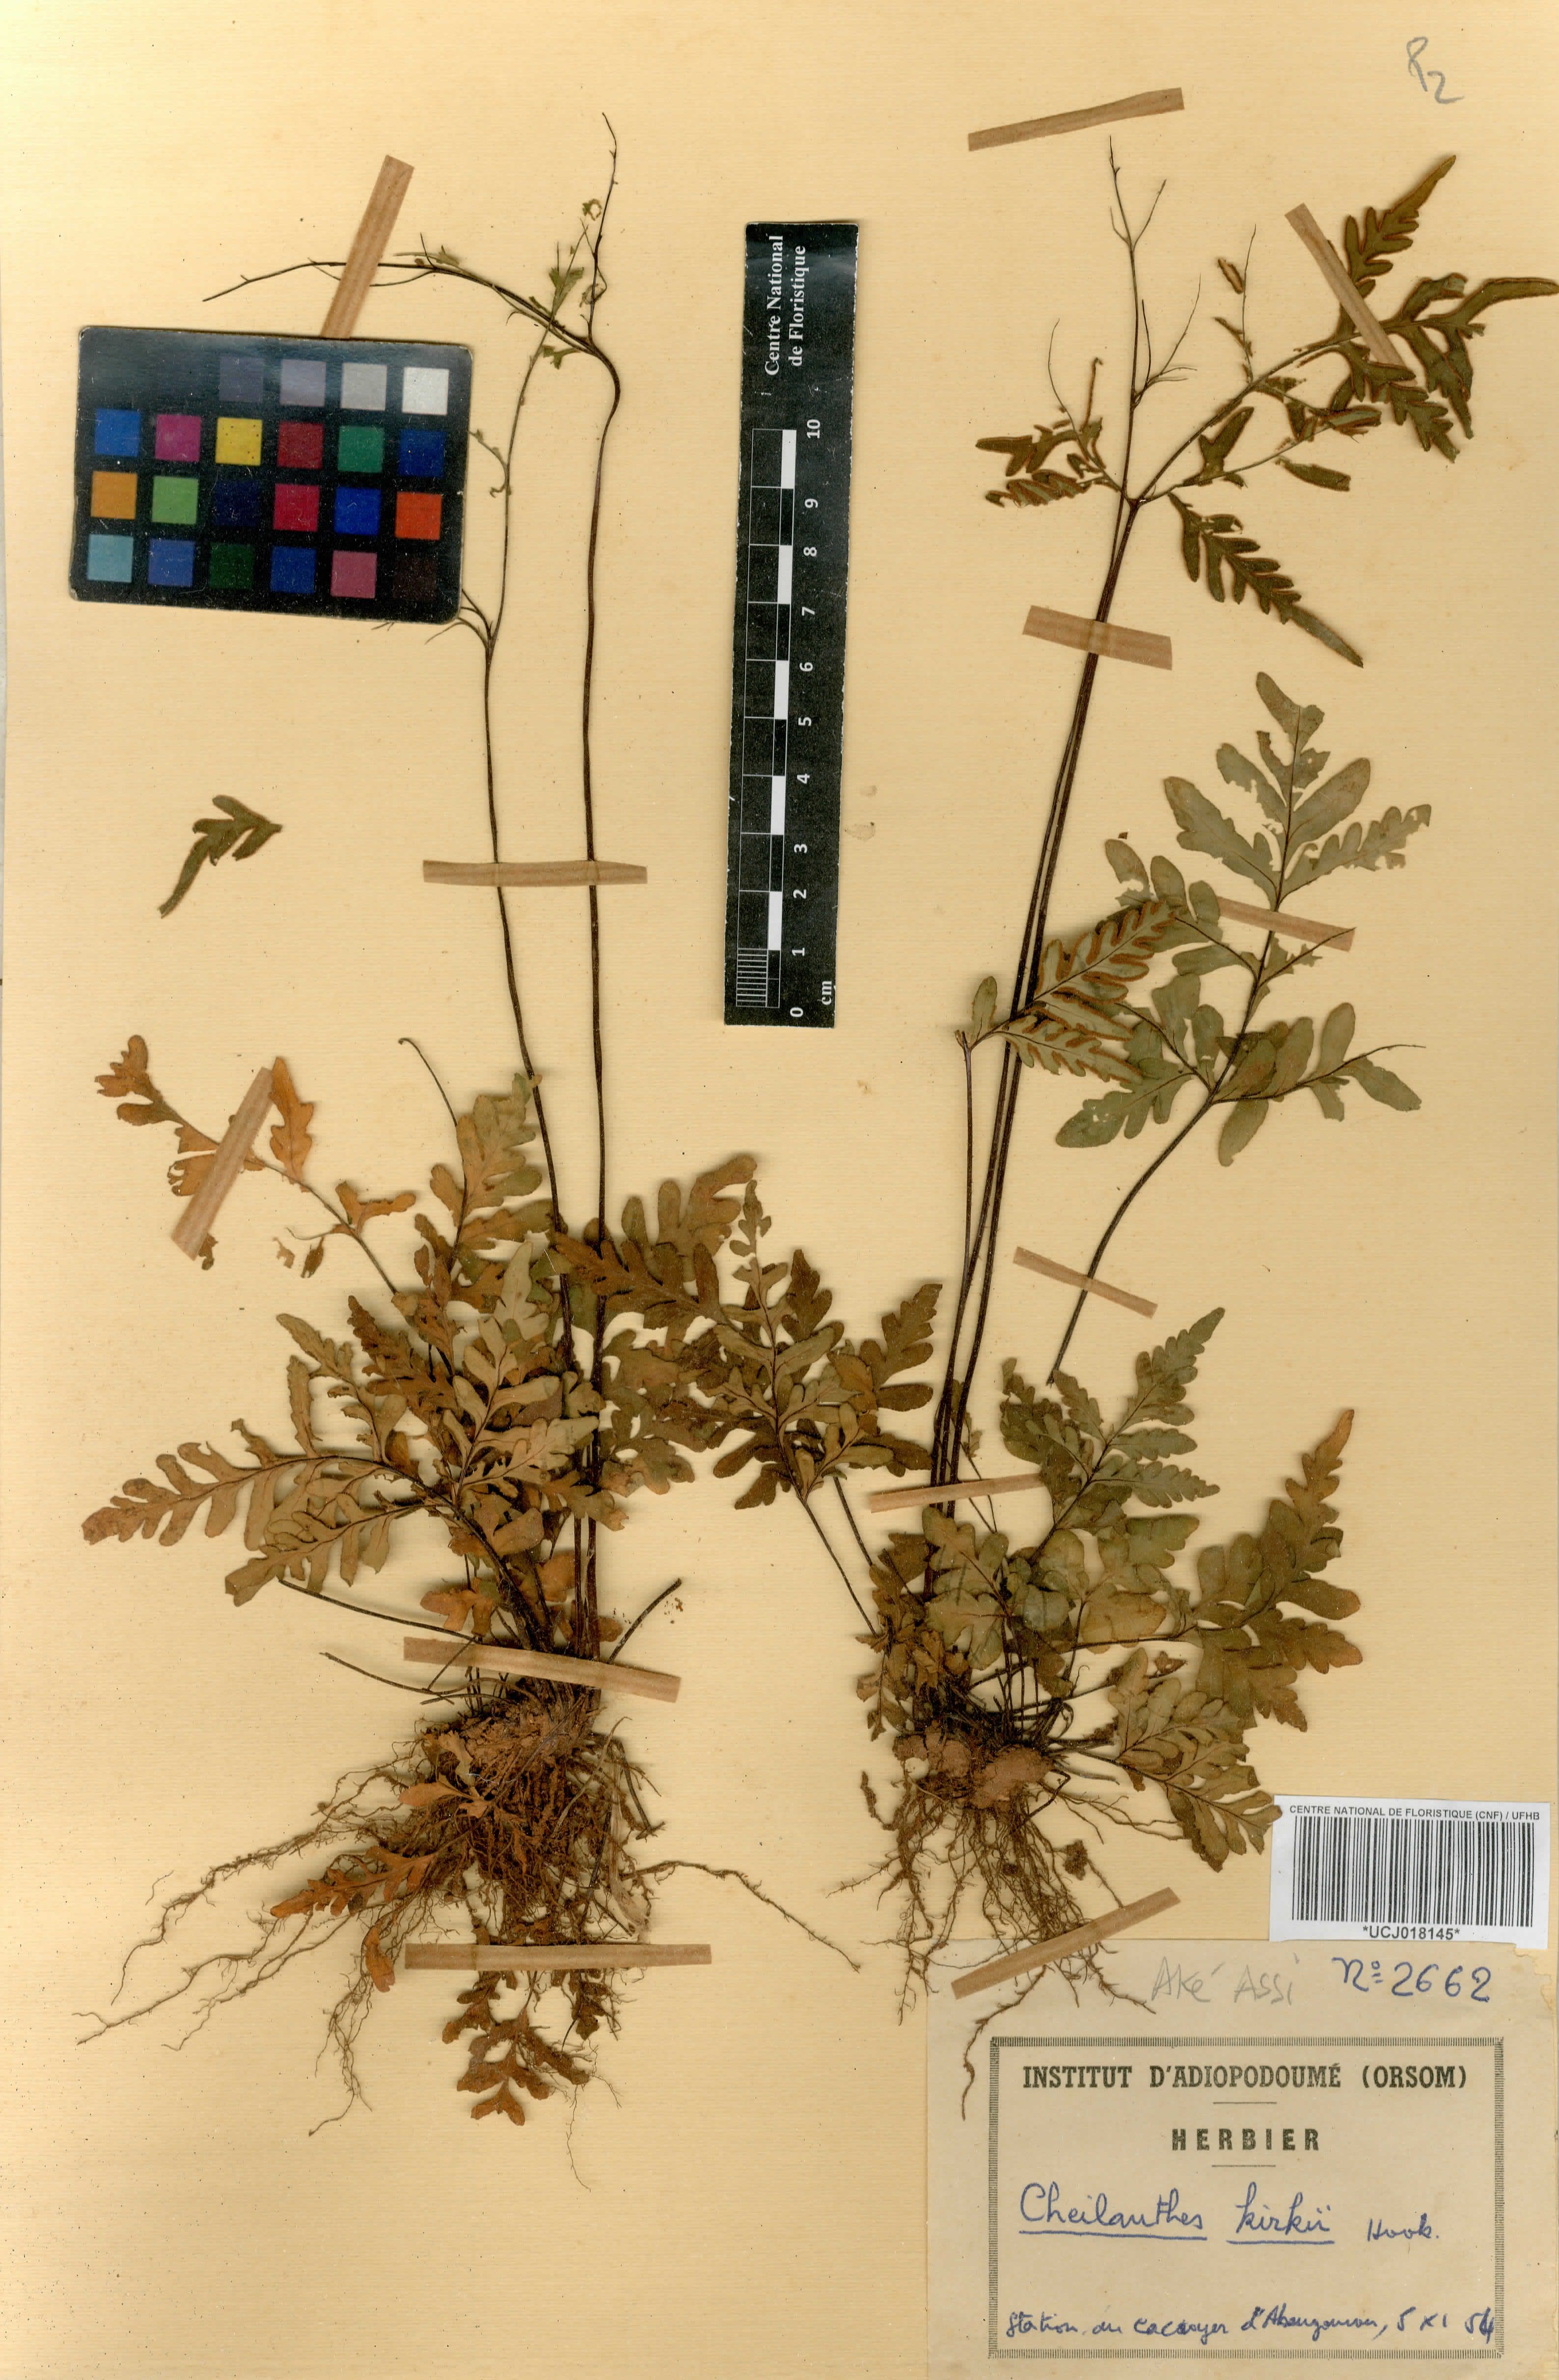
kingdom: Plantae
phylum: Tracheophyta
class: Polypodiopsida
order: Polypodiales
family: Pteridaceae
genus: Notholaena
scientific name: Notholaena
